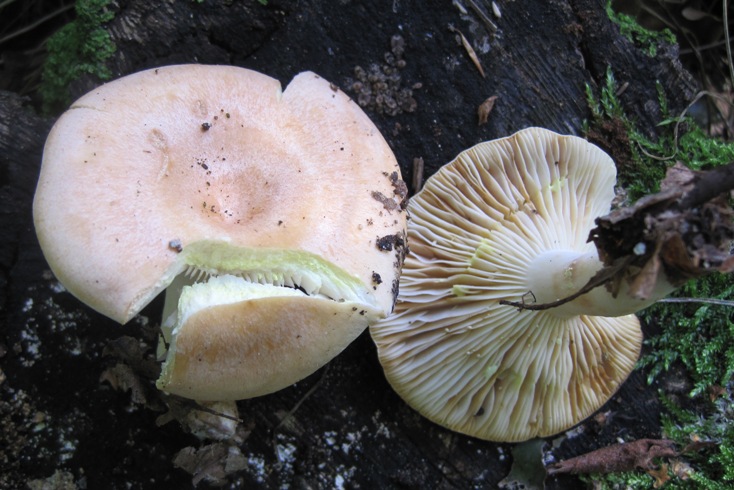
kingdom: Fungi
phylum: Basidiomycota
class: Agaricomycetes
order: Russulales
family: Russulaceae
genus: Lactarius
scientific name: Lactarius chrysorrheus
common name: svovlmælket mælkehat
